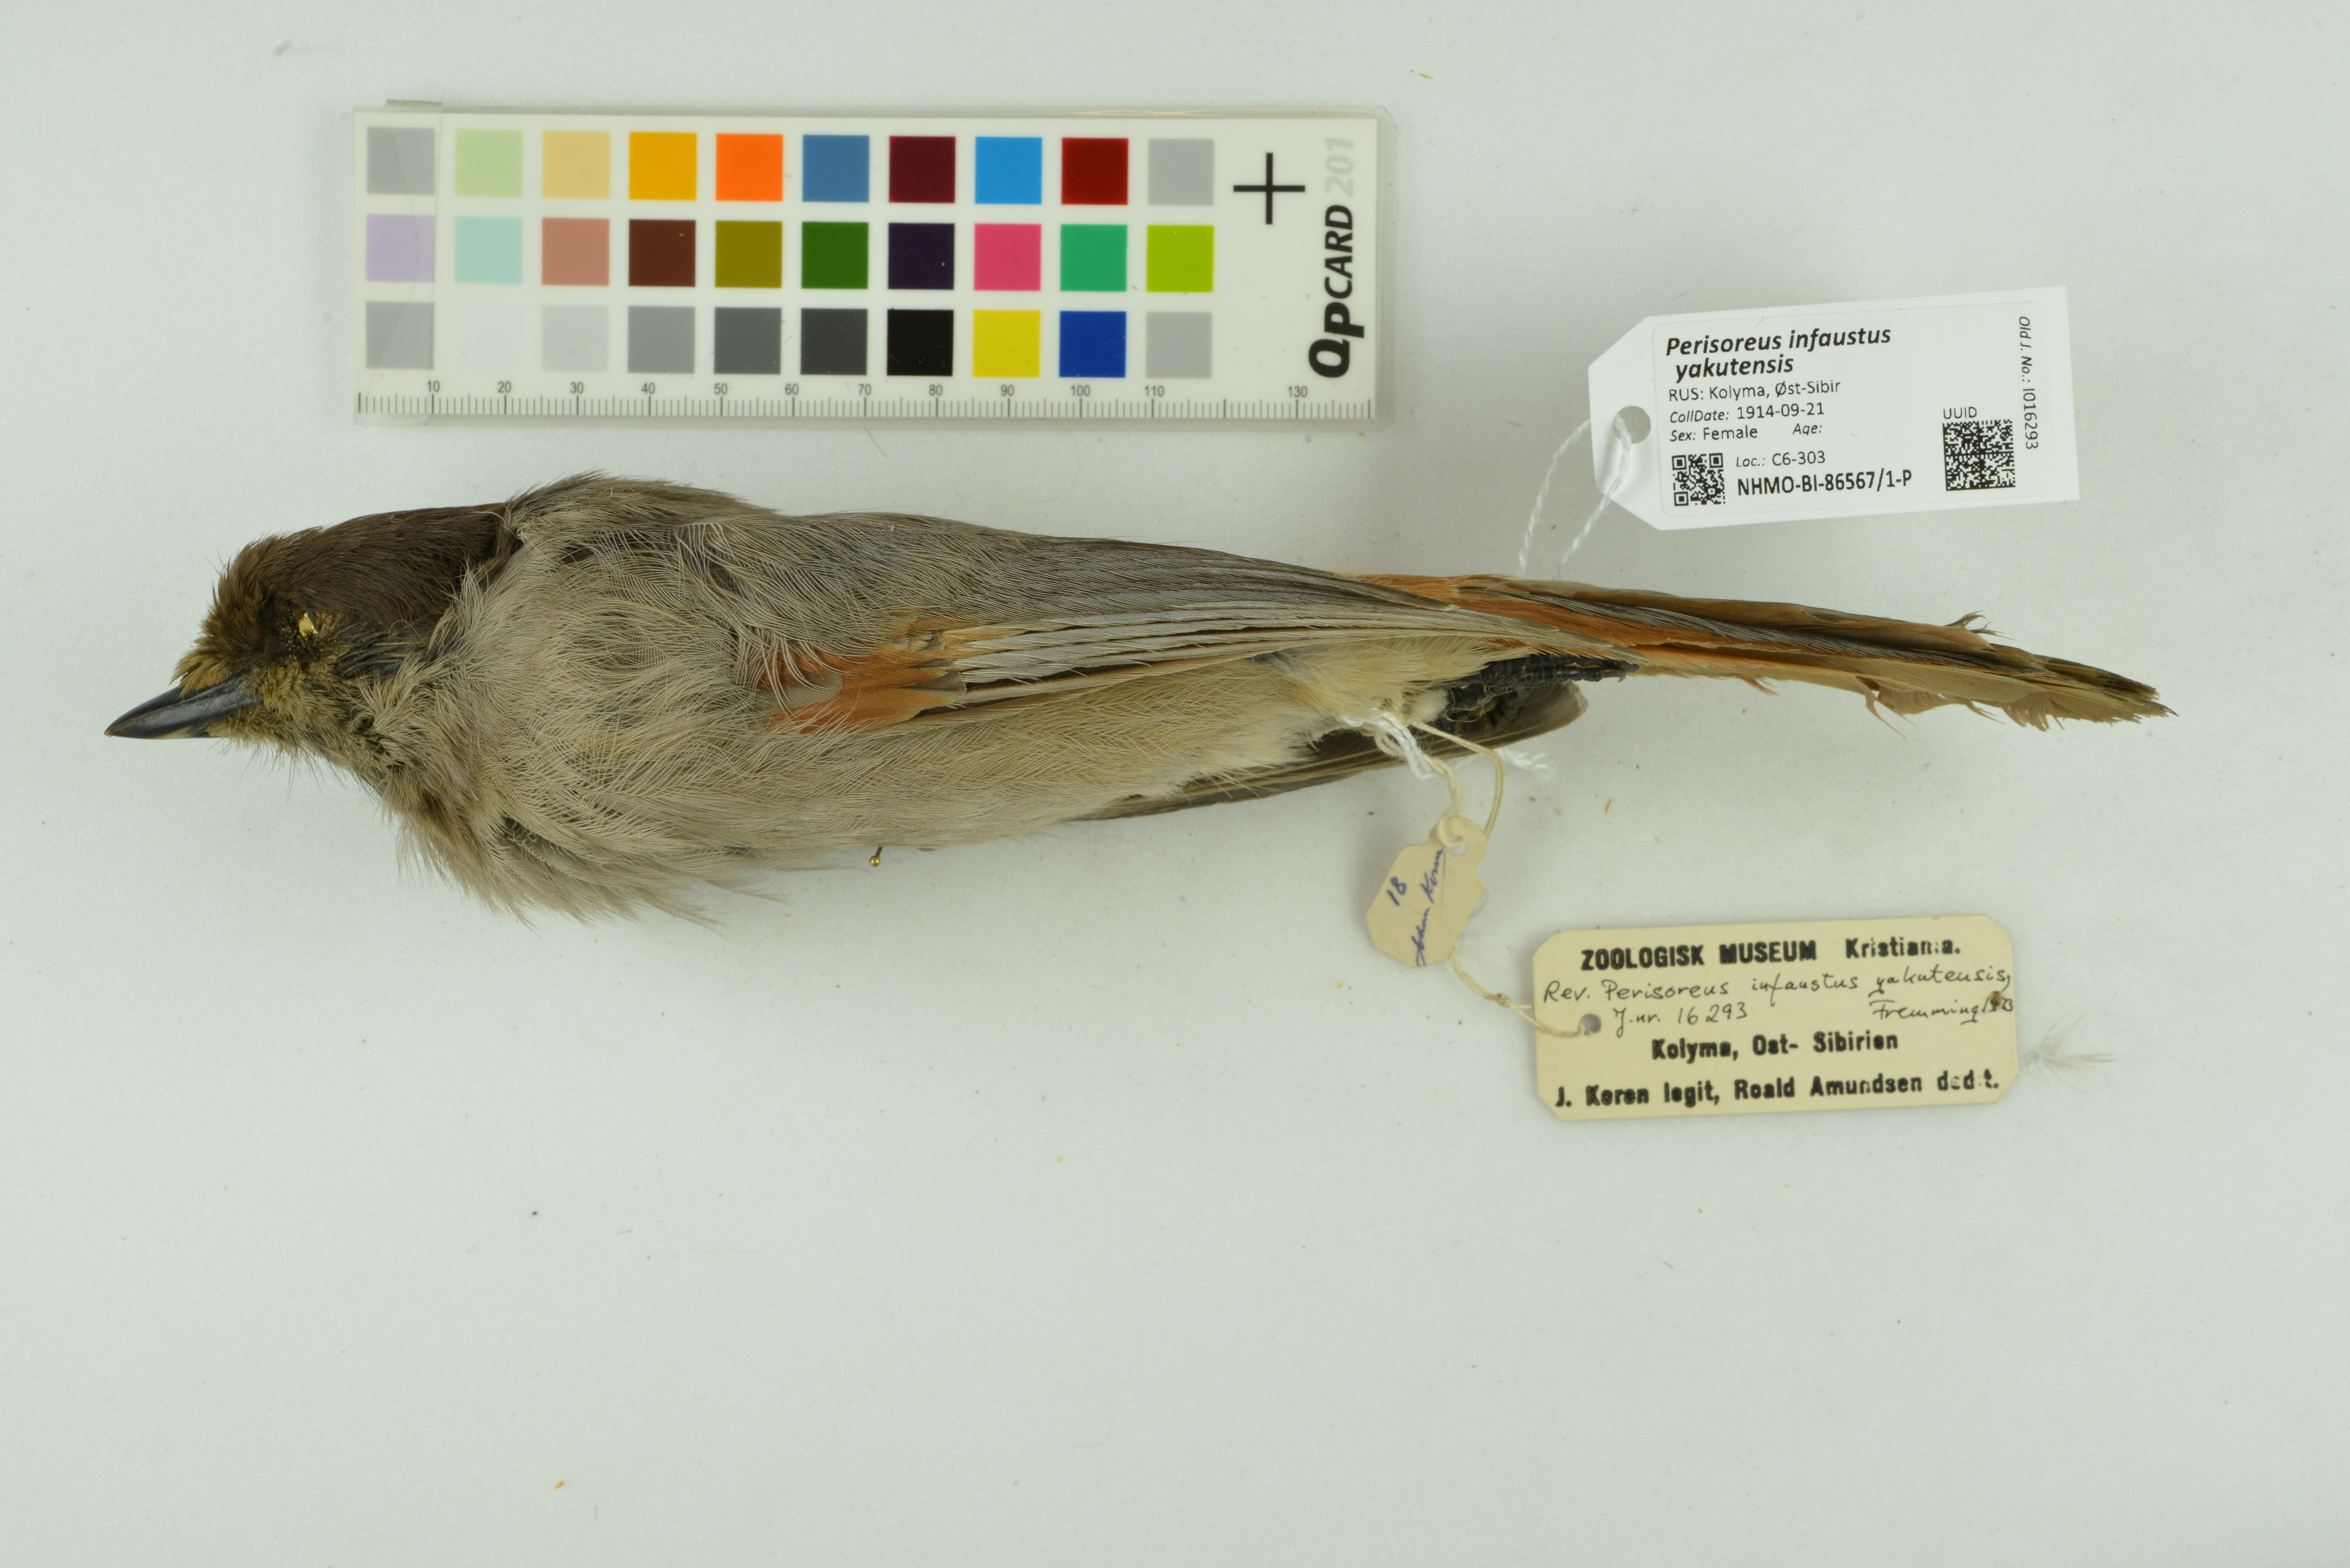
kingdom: Animalia
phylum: Chordata
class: Aves
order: Passeriformes
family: Corvidae
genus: Perisoreus
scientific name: Perisoreus infaustus
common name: Siberian jay
